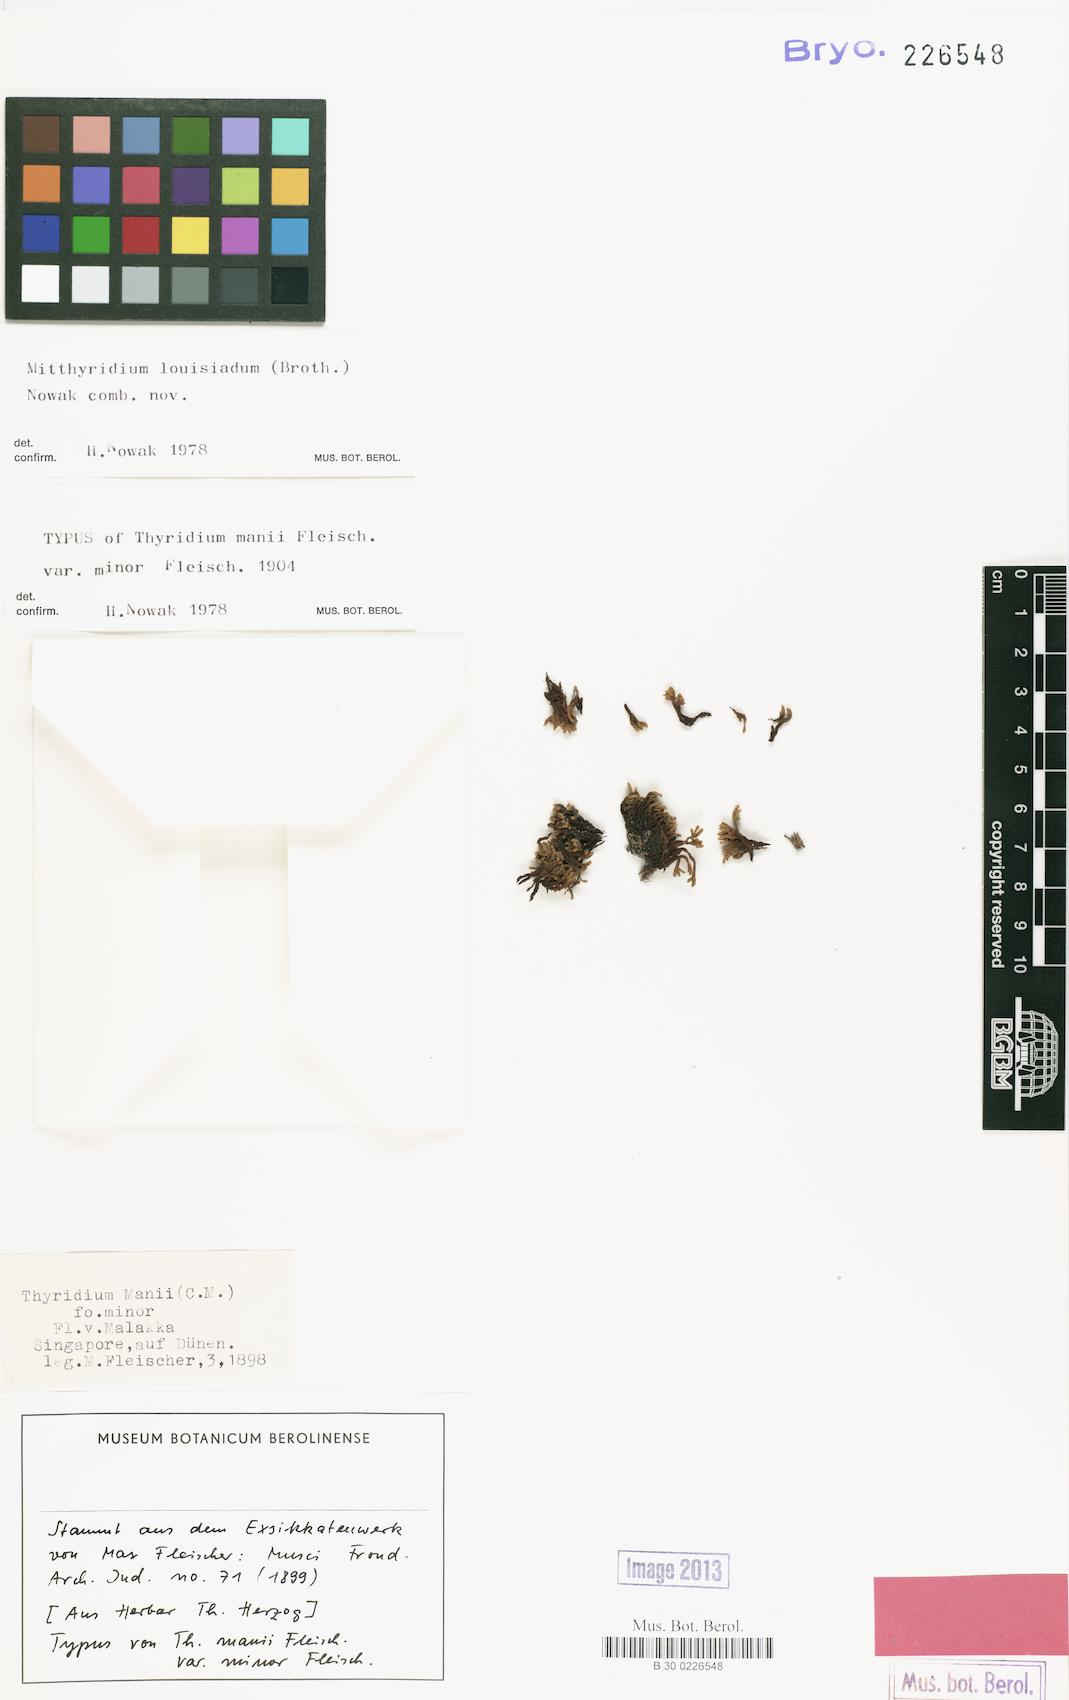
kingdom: Plantae
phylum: Bryophyta
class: Bryopsida
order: Dicranales
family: Calymperaceae
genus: Mitthyridium
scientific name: Mitthyridium repens
